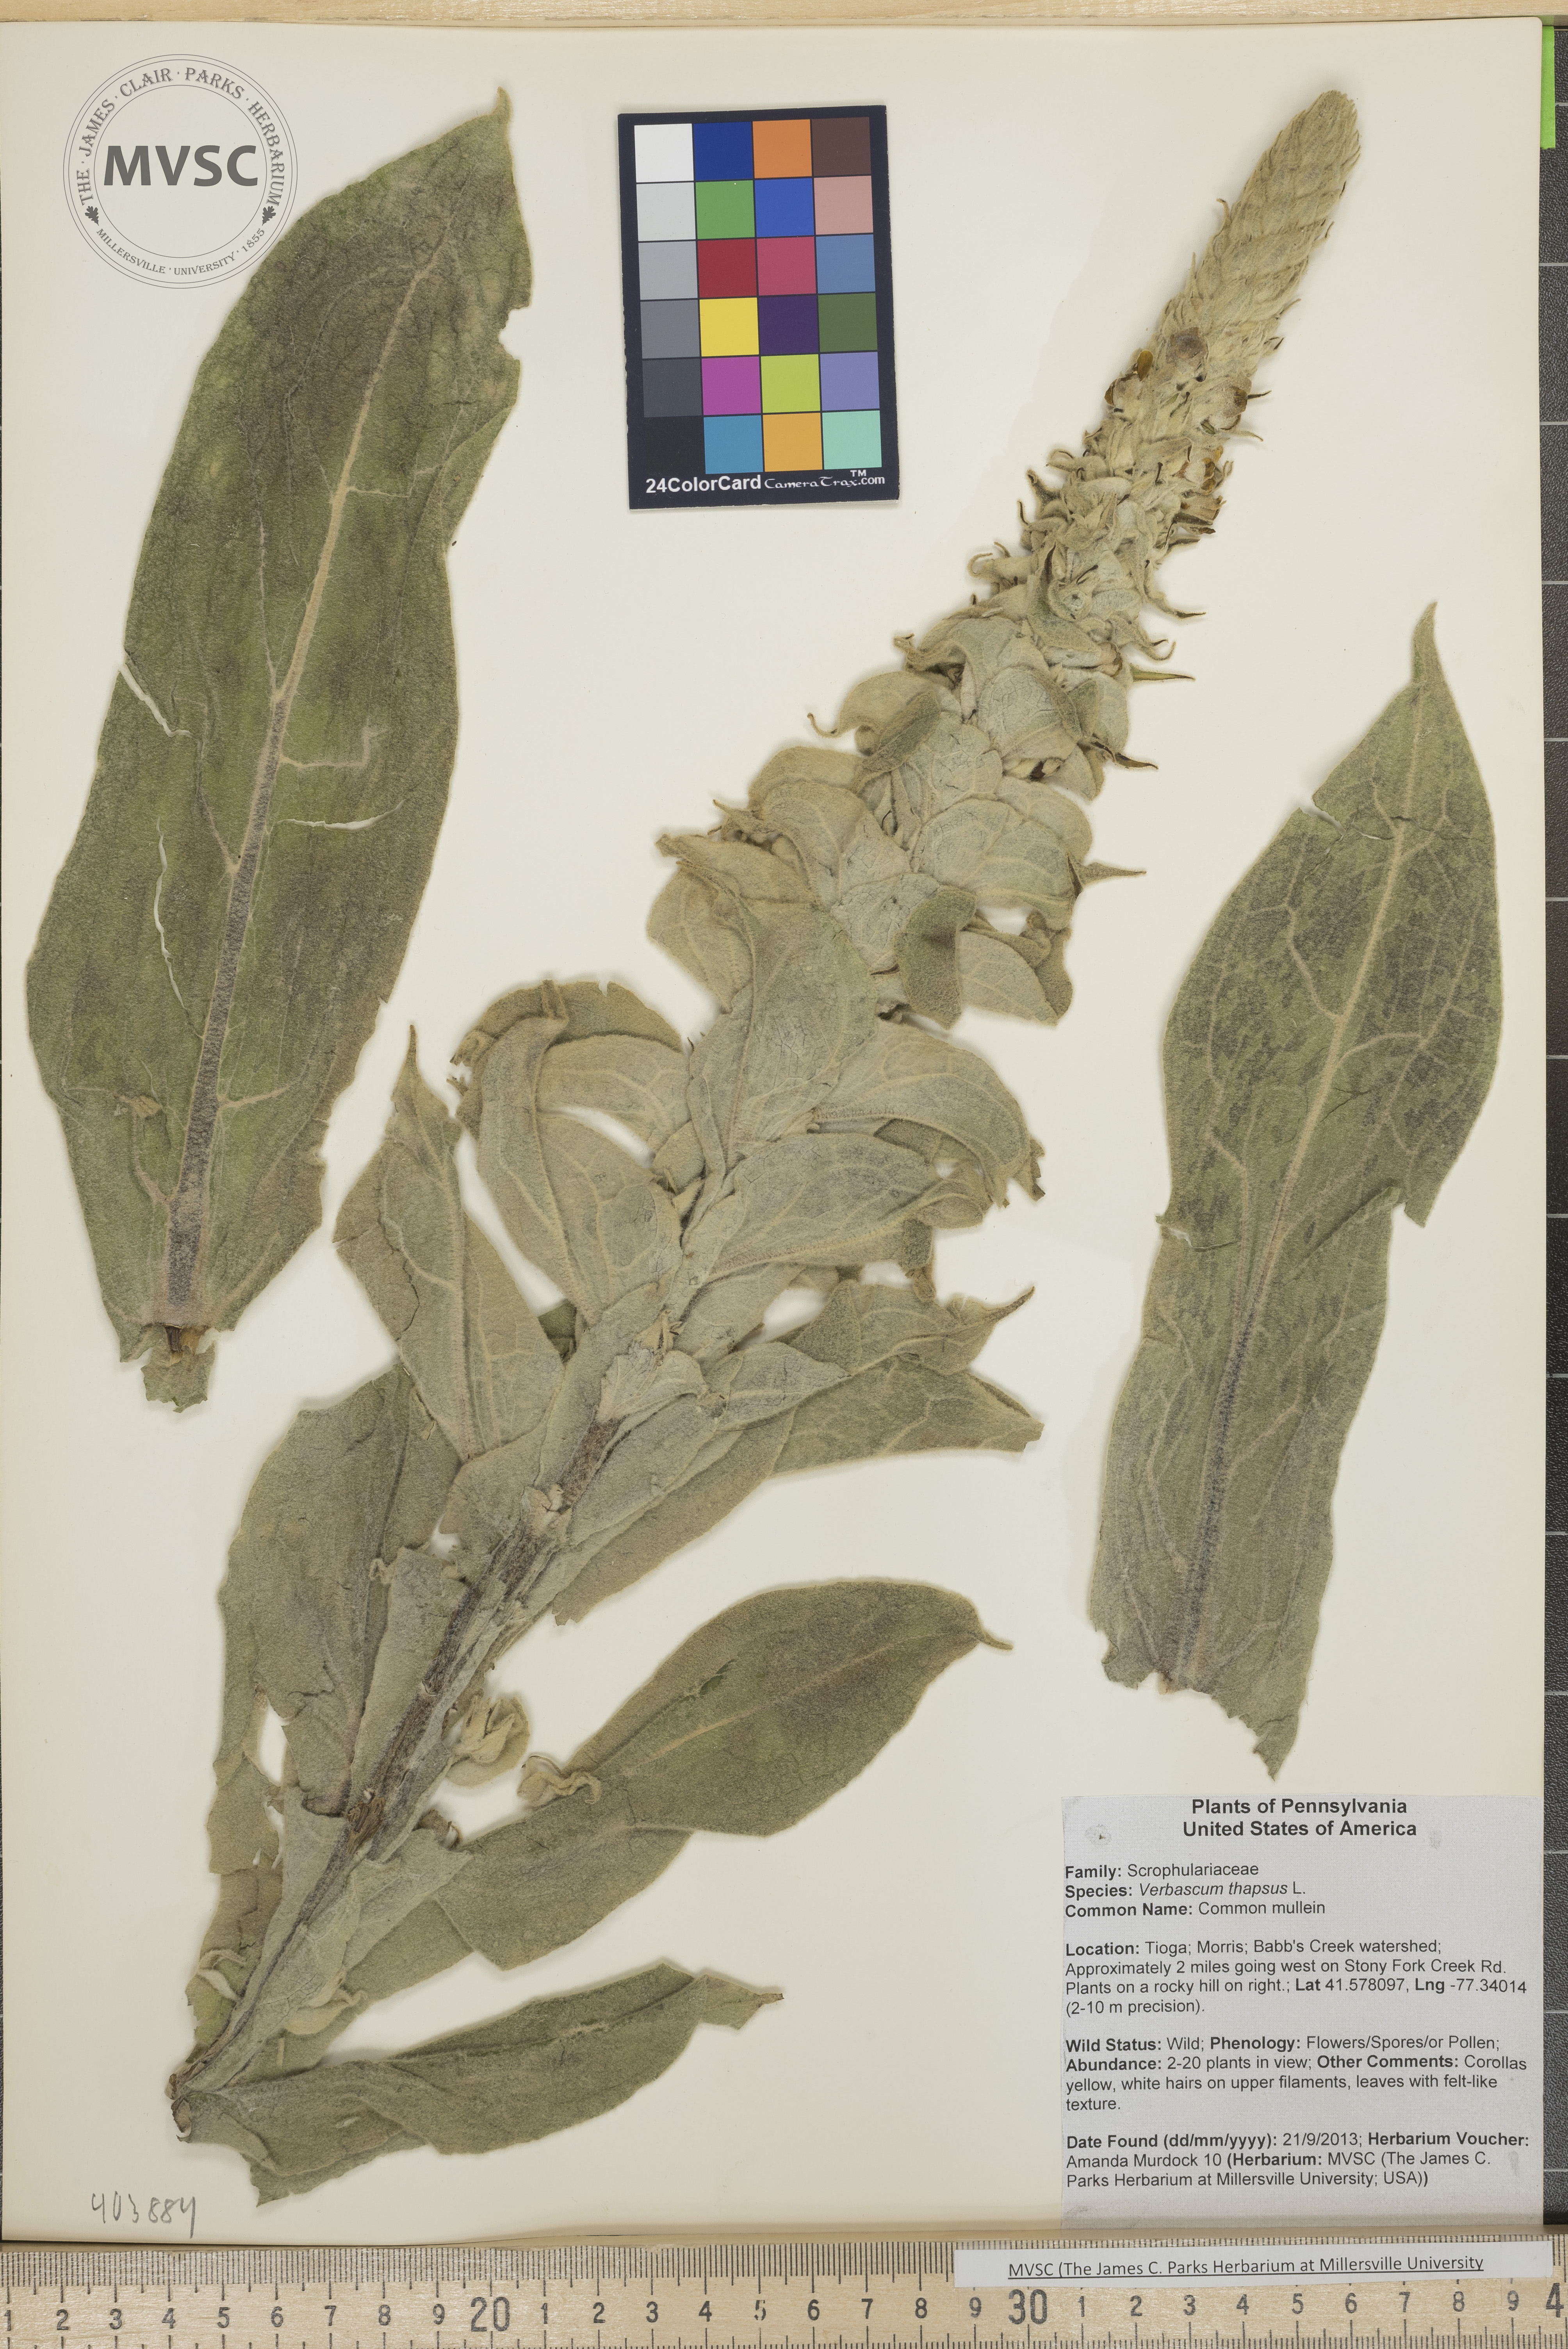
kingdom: Plantae
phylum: Tracheophyta
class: Magnoliopsida
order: Lamiales
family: Scrophulariaceae
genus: Verbascum
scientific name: Verbascum thapsus
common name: Common mullein
